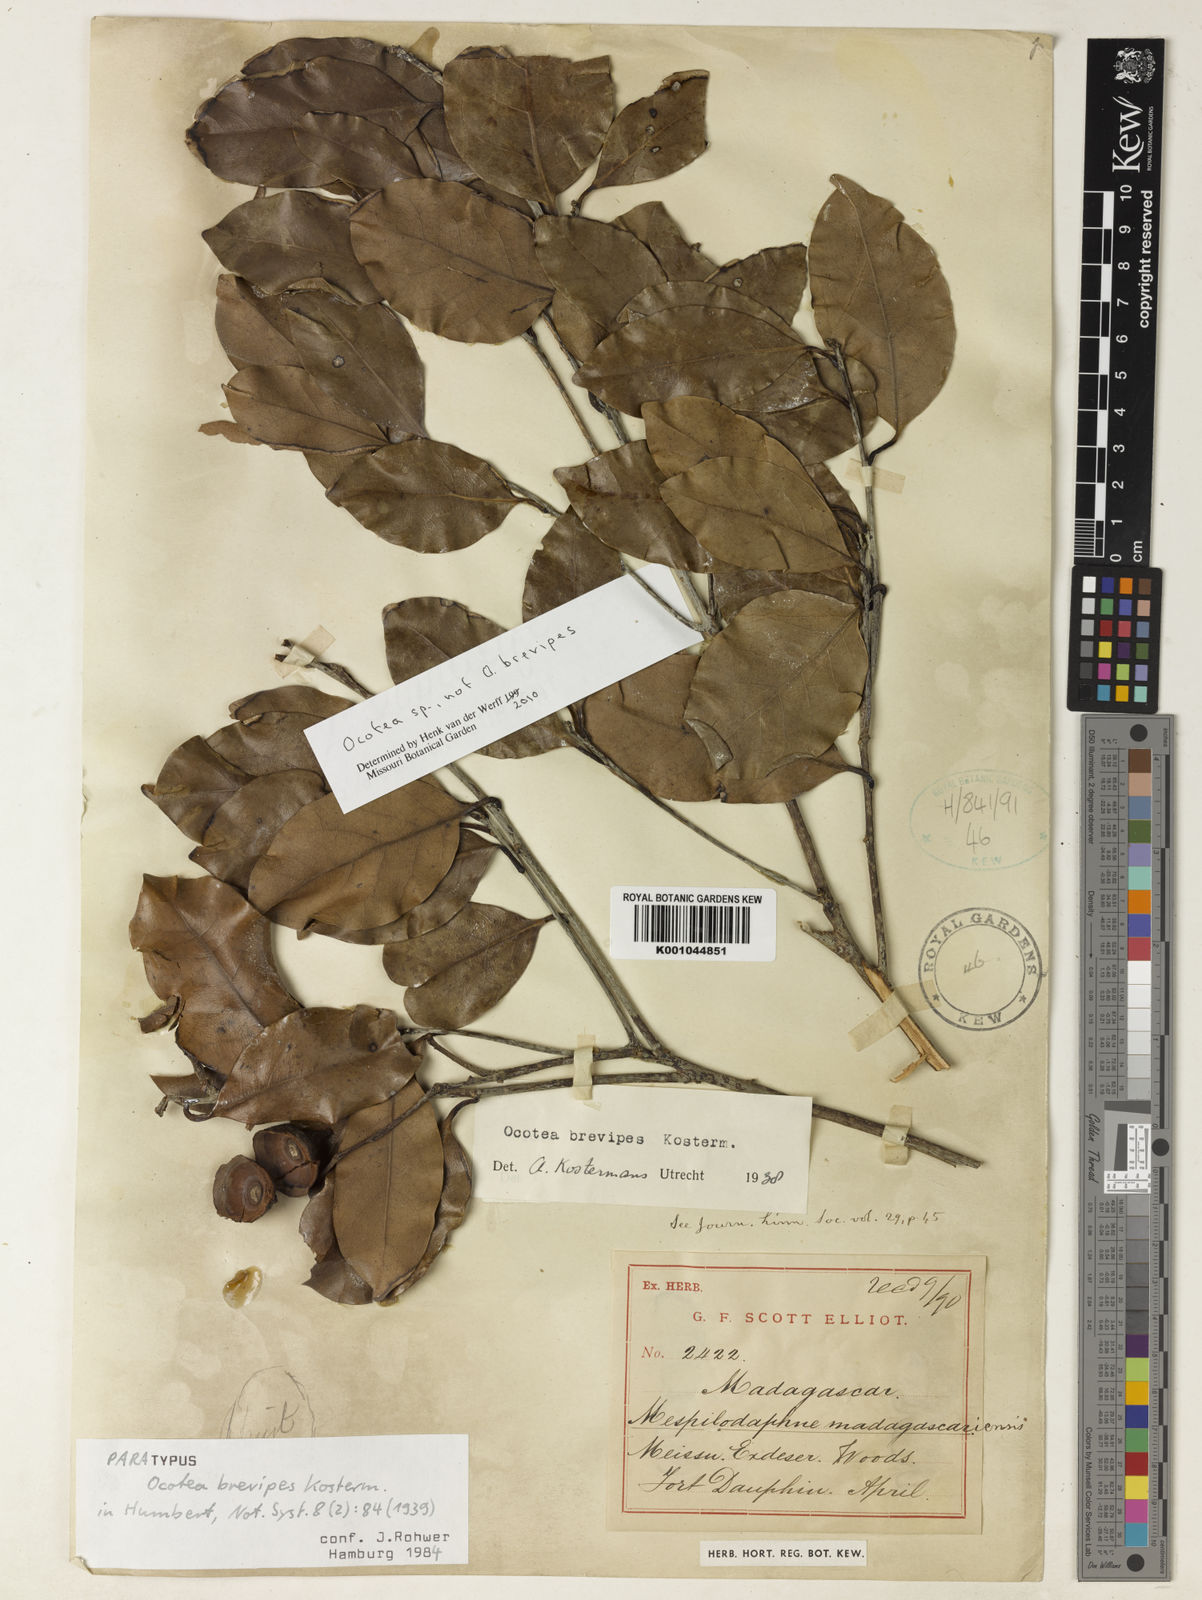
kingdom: Plantae
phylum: Tracheophyta
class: Magnoliopsida
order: Laurales
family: Lauraceae
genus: Ocotea
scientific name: Ocotea brevipes
